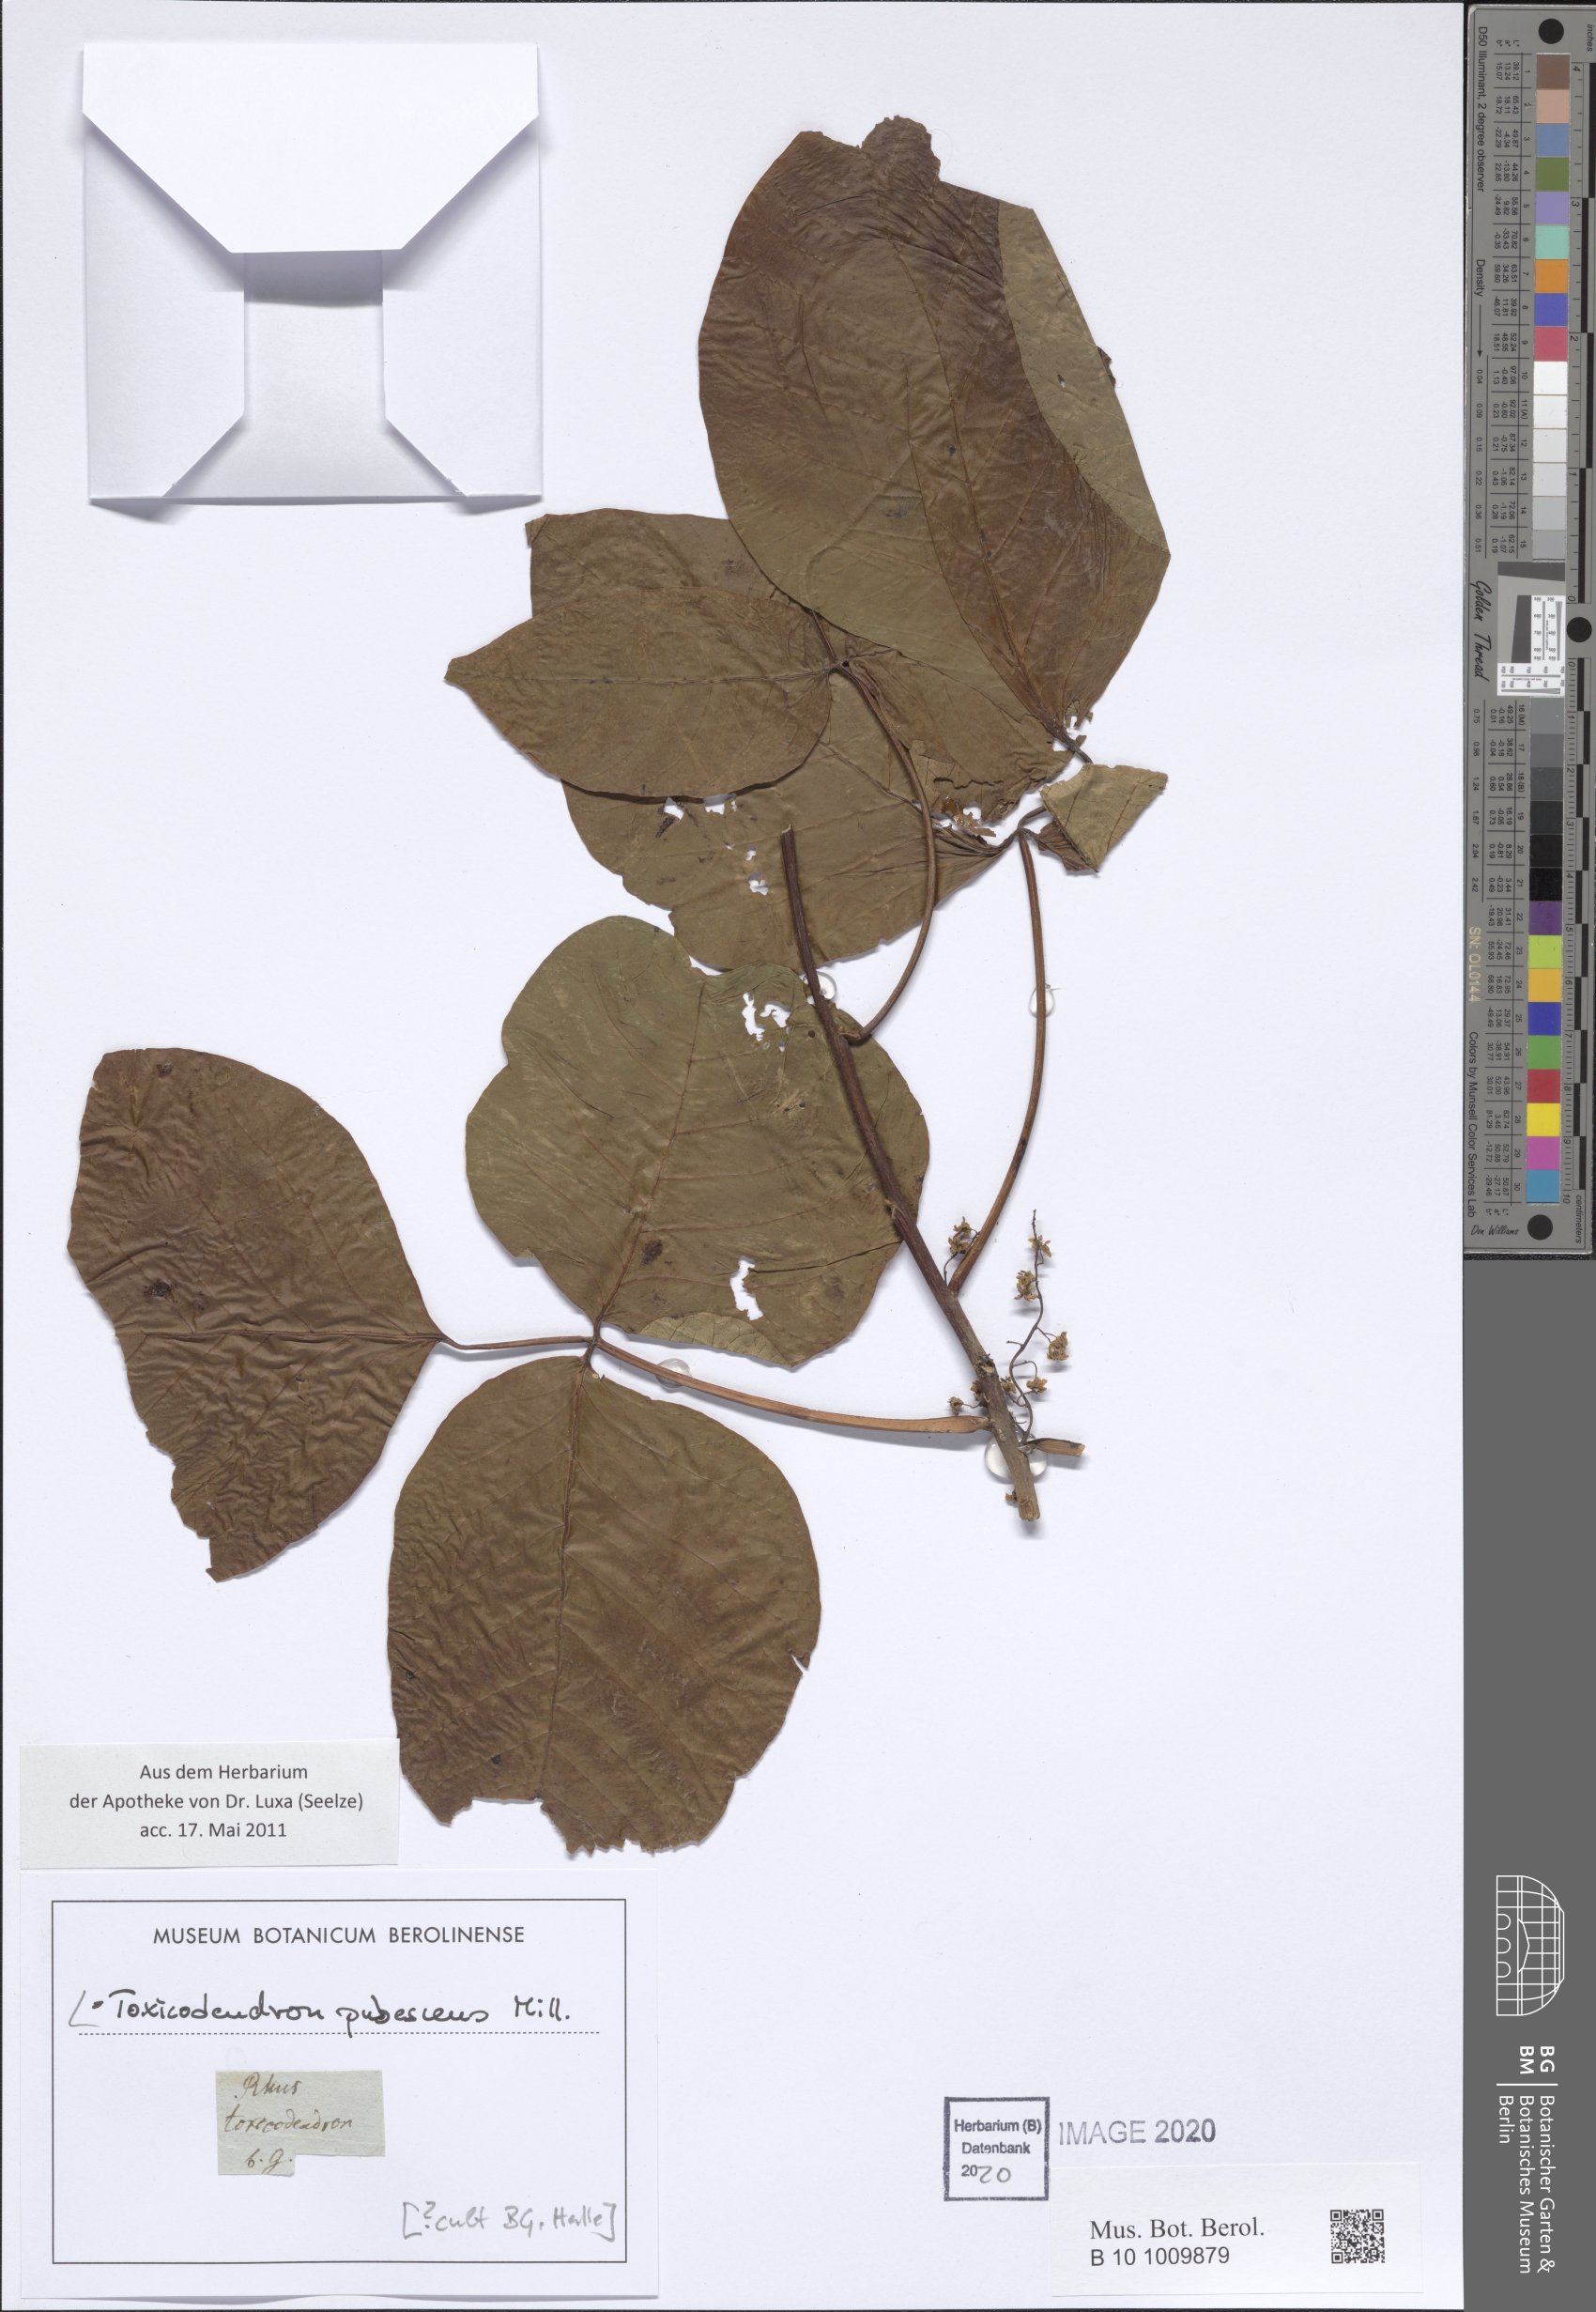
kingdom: Plantae
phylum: Tracheophyta
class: Magnoliopsida
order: Sapindales
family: Anacardiaceae
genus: Toxicodendron
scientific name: Toxicodendron pubescens
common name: Eastern poison-oak
